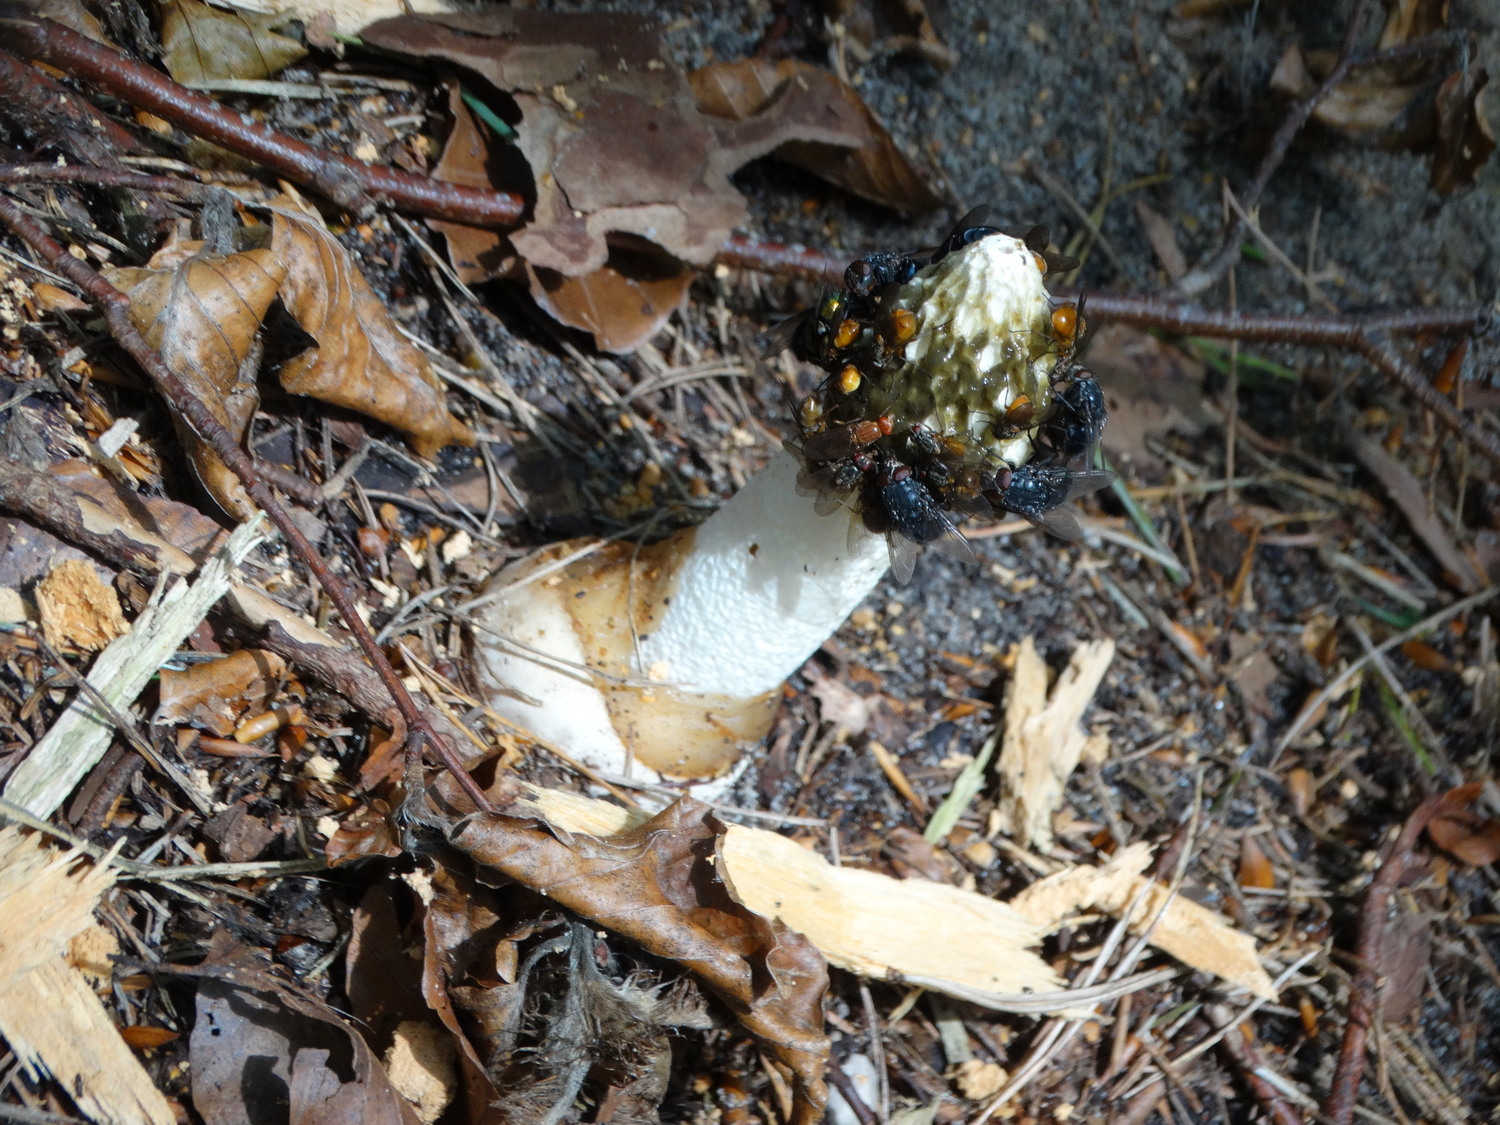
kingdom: Fungi
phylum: Basidiomycota
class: Agaricomycetes
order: Phallales
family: Phallaceae
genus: Phallus
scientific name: Phallus impudicus
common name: almindelig stinksvamp
